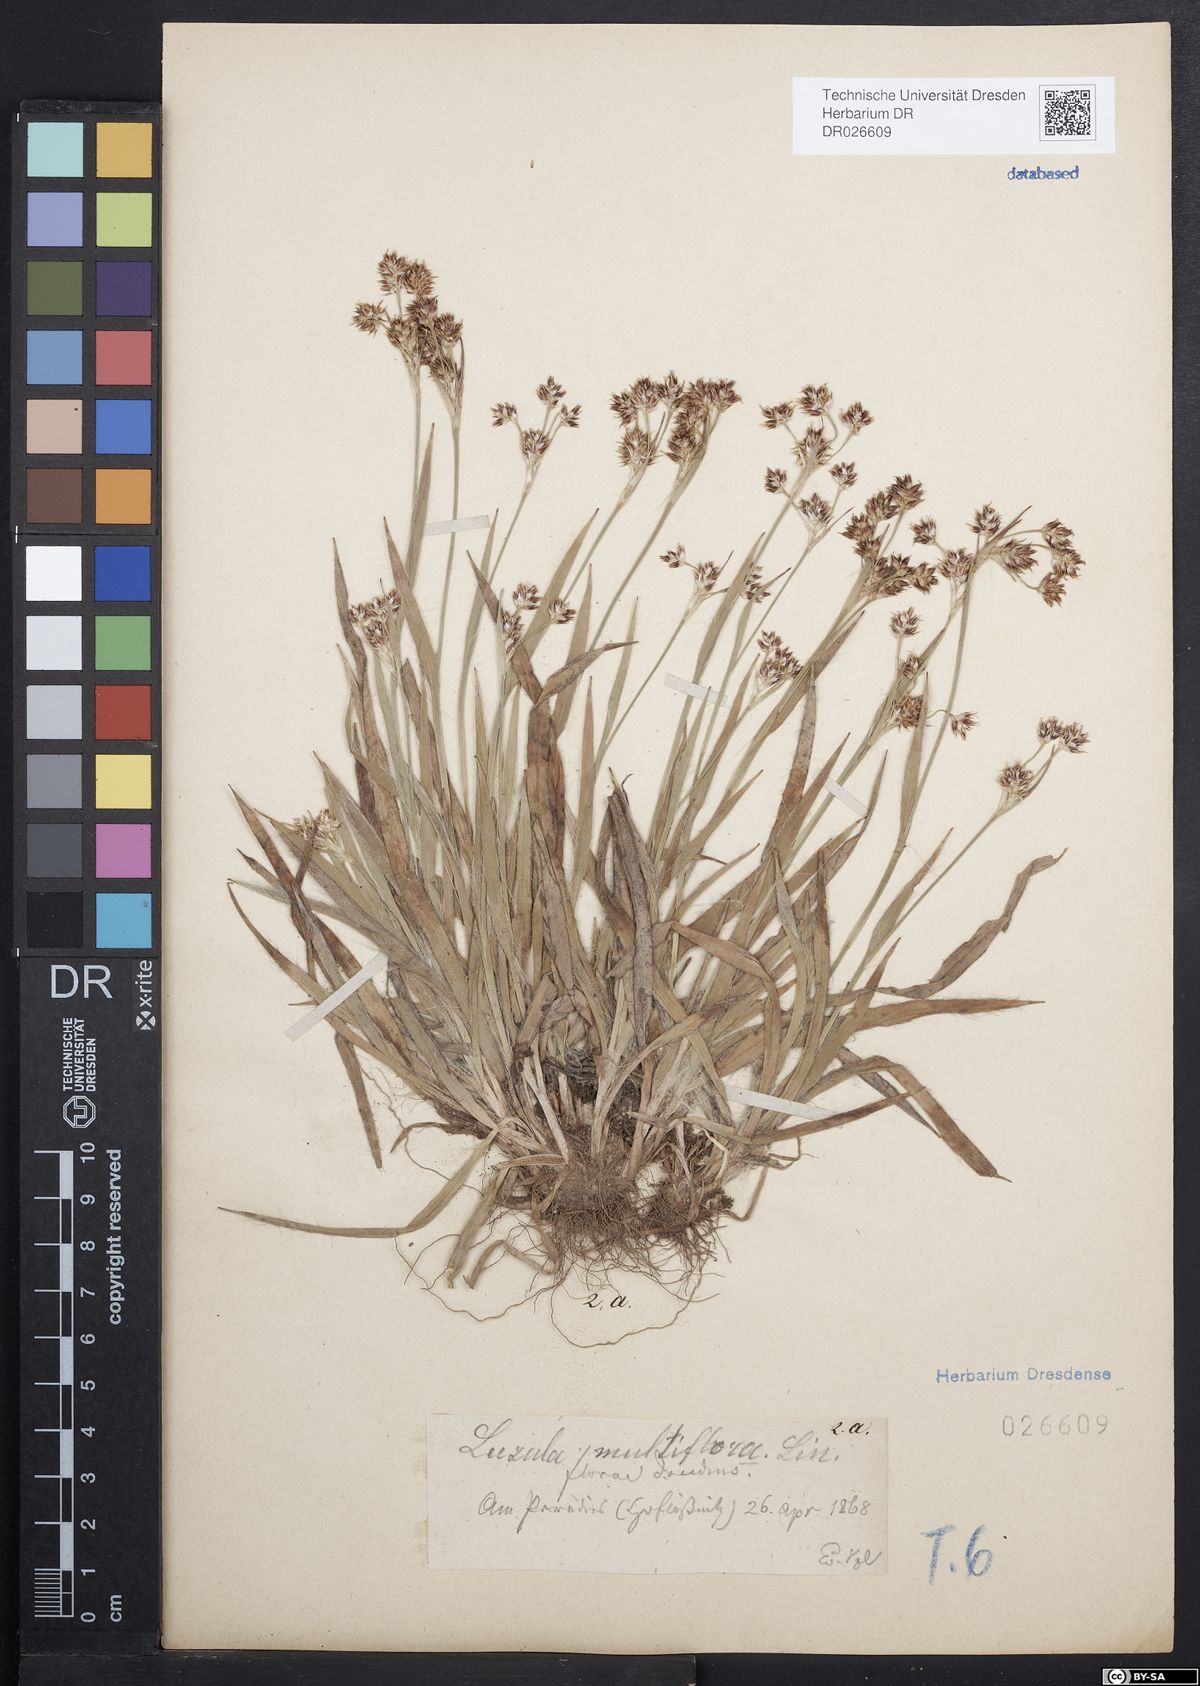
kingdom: Plantae
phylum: Tracheophyta
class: Liliopsida
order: Poales
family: Juncaceae
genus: Luzula
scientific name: Luzula campestris
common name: Field wood-rush
